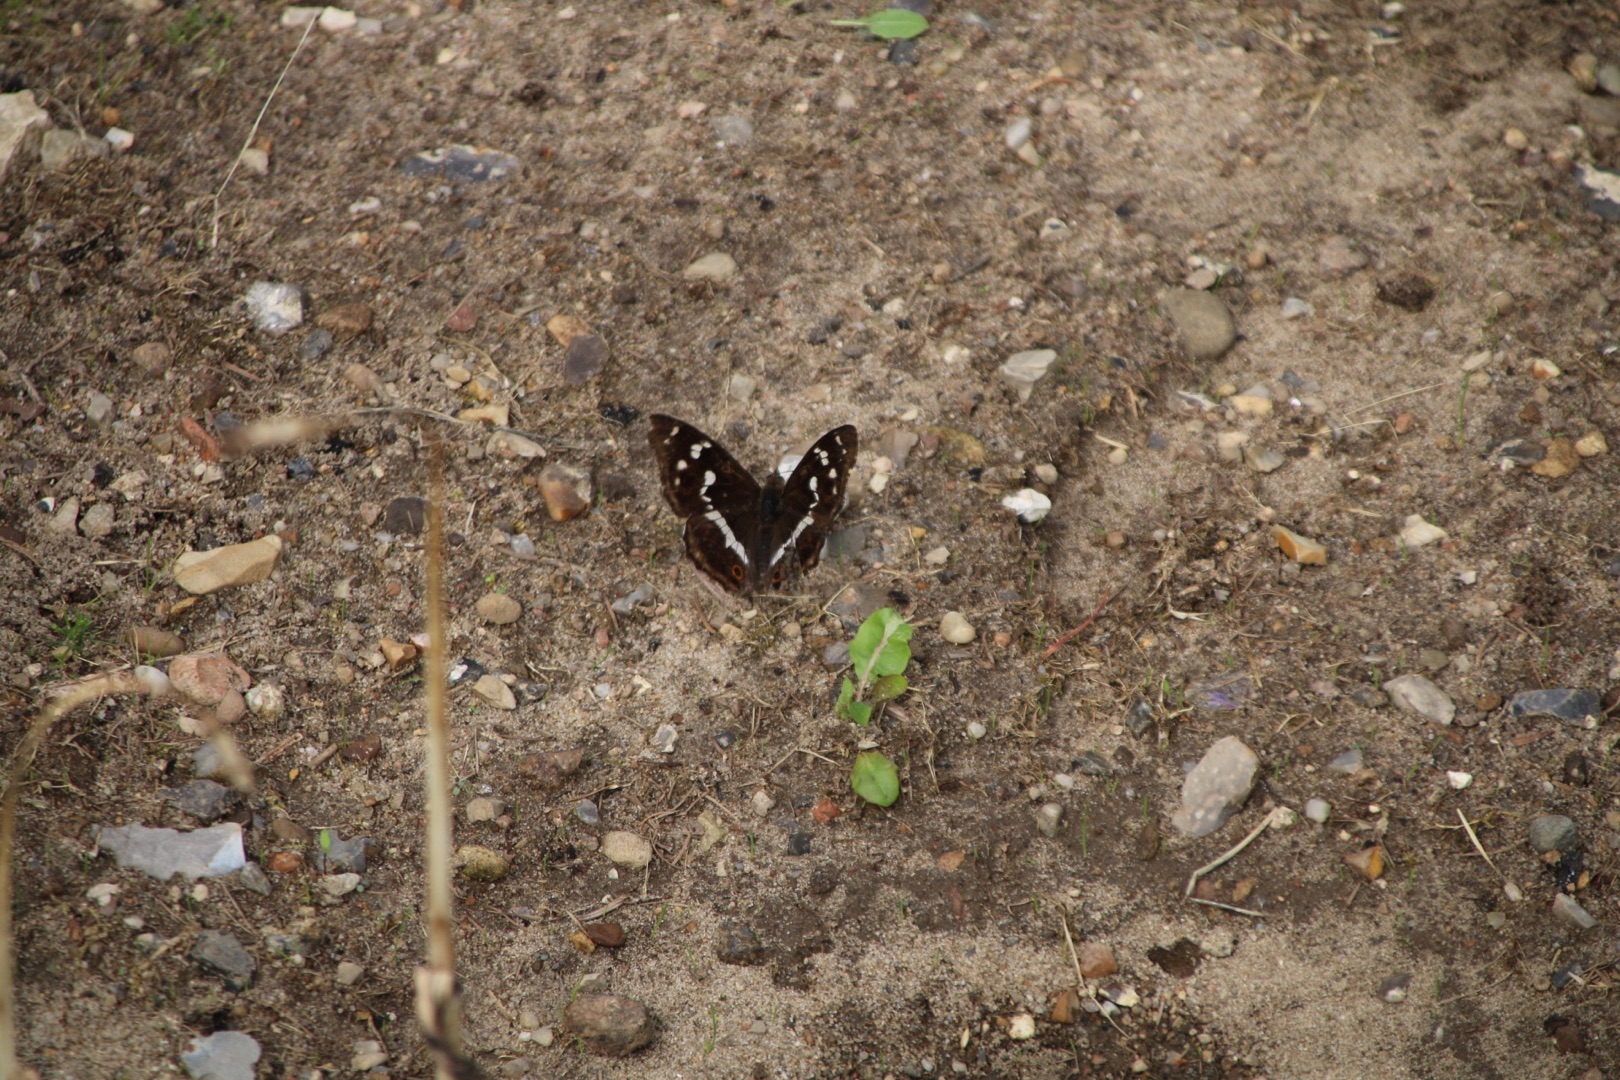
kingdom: Animalia
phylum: Arthropoda
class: Insecta
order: Lepidoptera
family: Nymphalidae
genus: Apatura
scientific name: Apatura iris
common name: Iris
